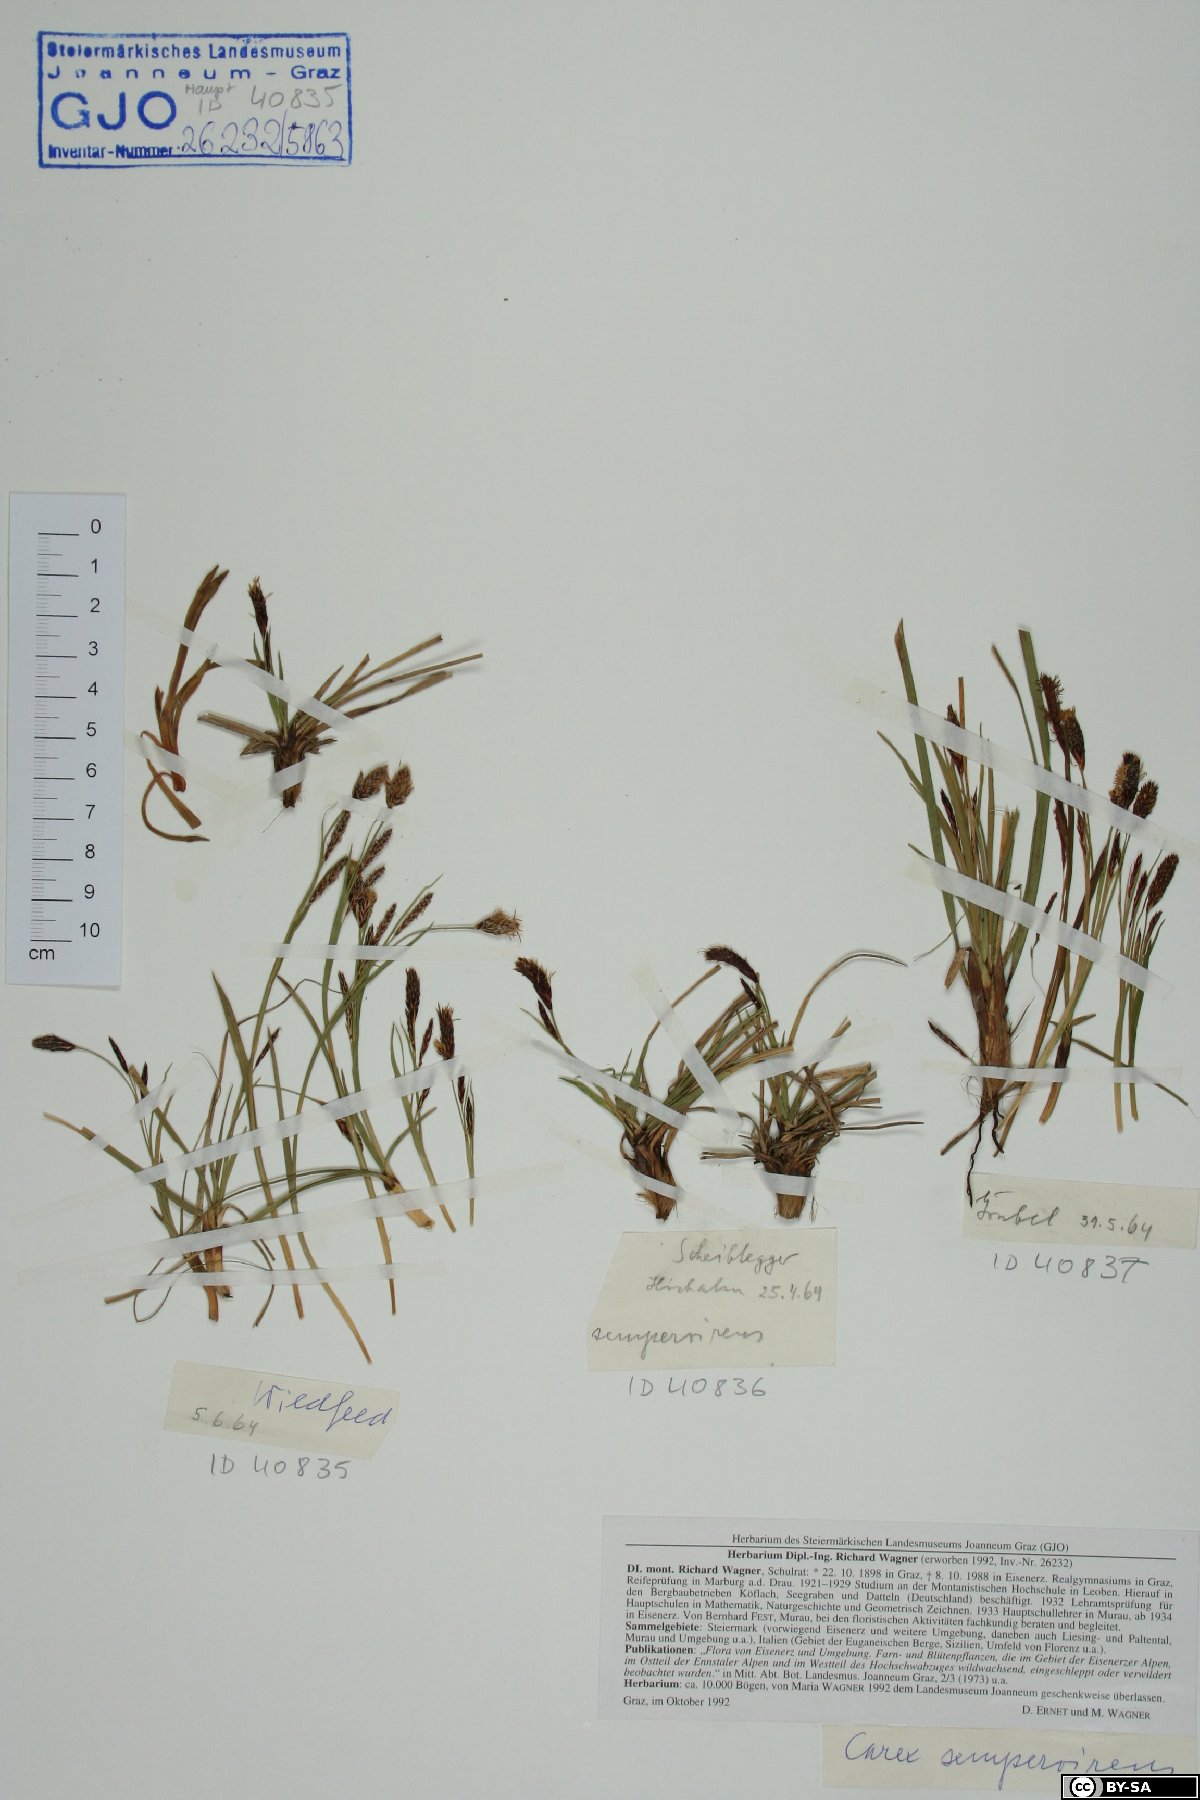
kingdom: Plantae
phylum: Tracheophyta
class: Liliopsida
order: Poales
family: Cyperaceae
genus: Carex
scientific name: Carex sempervirens
